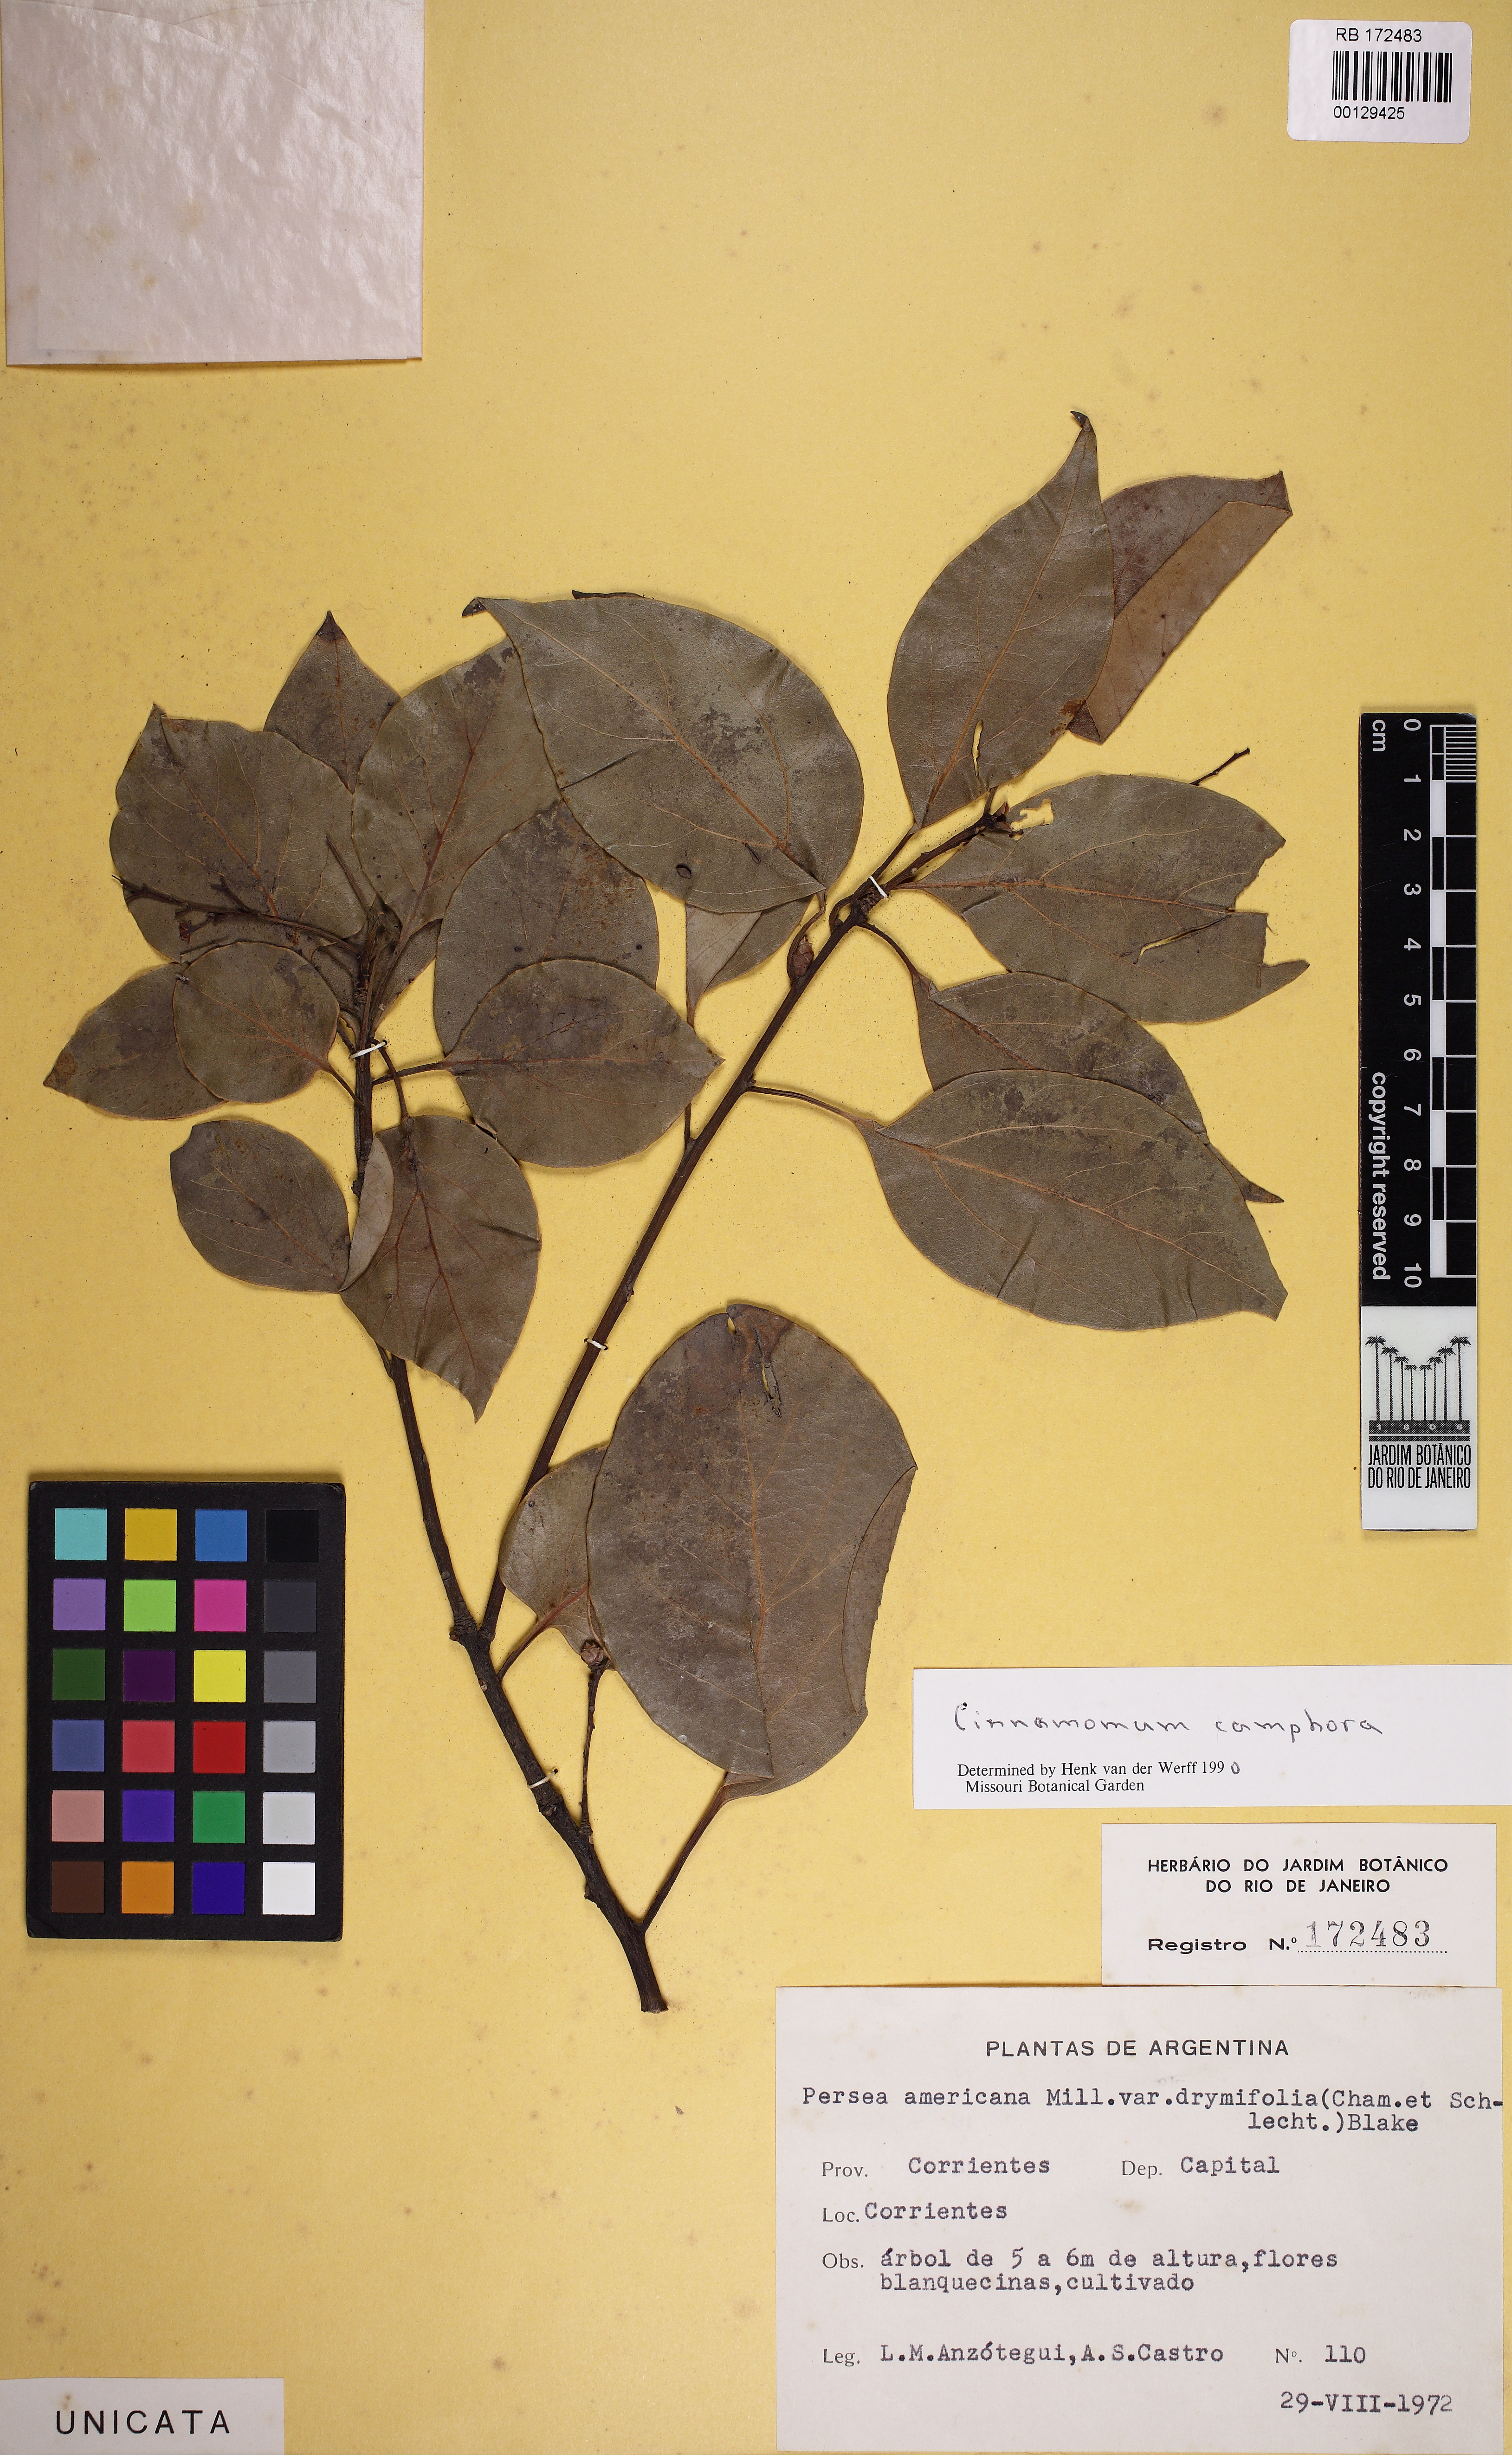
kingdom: Plantae
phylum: Tracheophyta
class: Magnoliopsida
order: Laurales
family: Lauraceae
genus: Cinnamomum
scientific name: Cinnamomum camphora
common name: Camphortree
